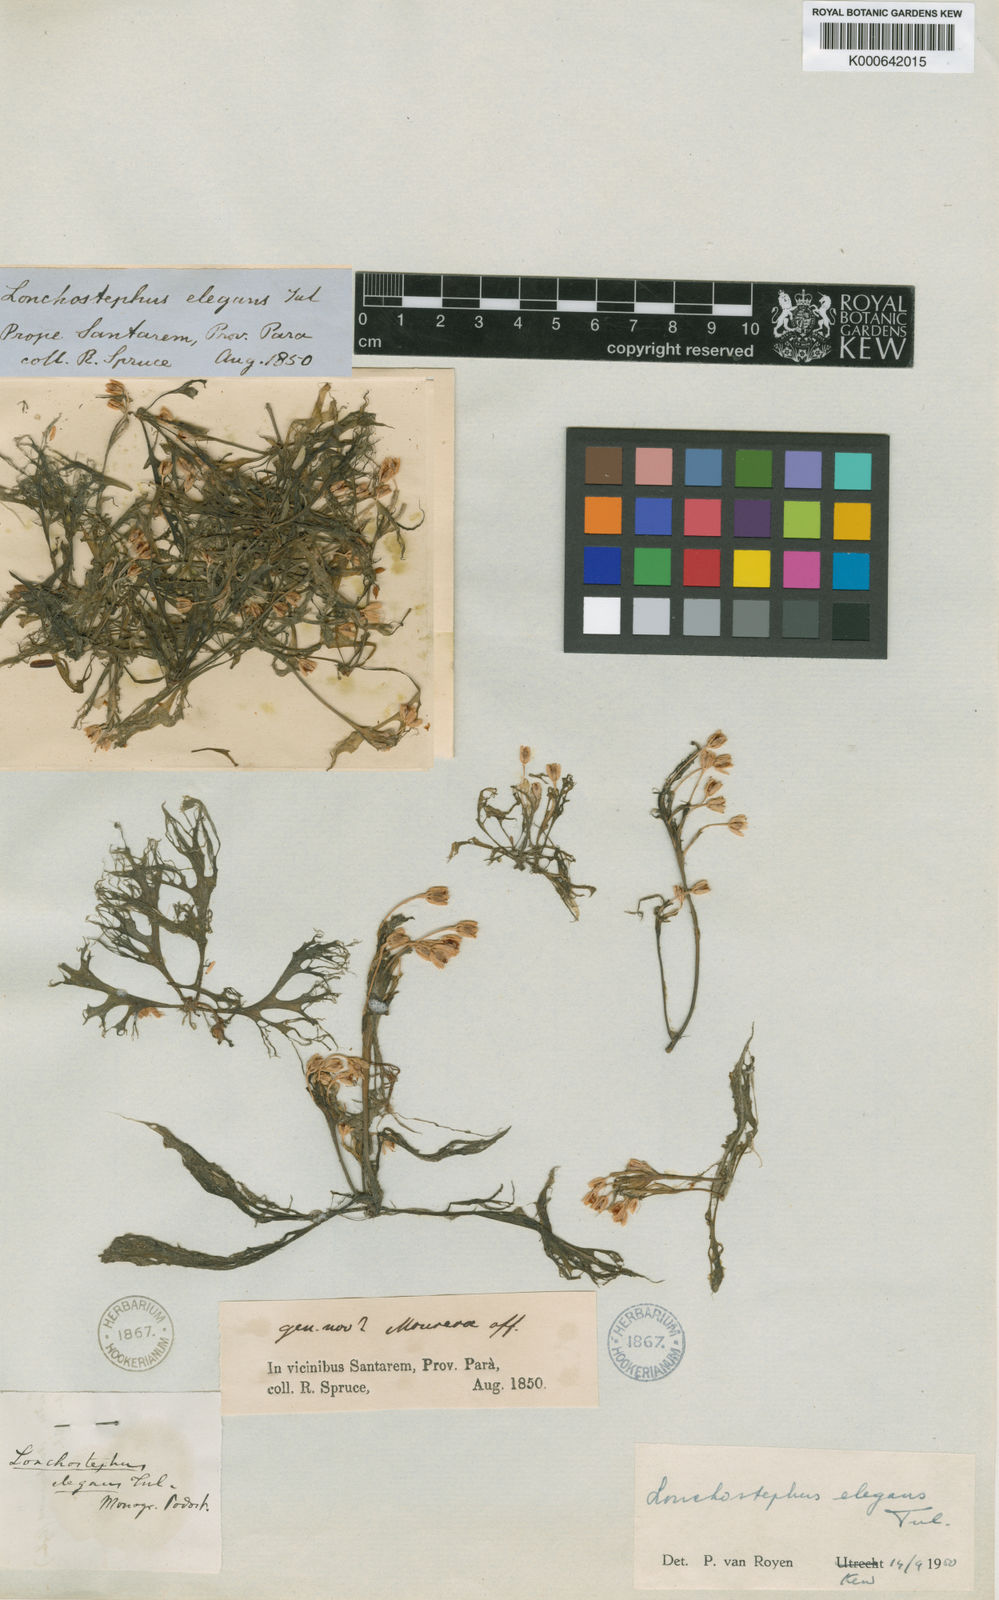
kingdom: Plantae
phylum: Tracheophyta
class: Magnoliopsida
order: Malpighiales
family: Podostemaceae
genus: Lonchostephus
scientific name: Lonchostephus elegans
